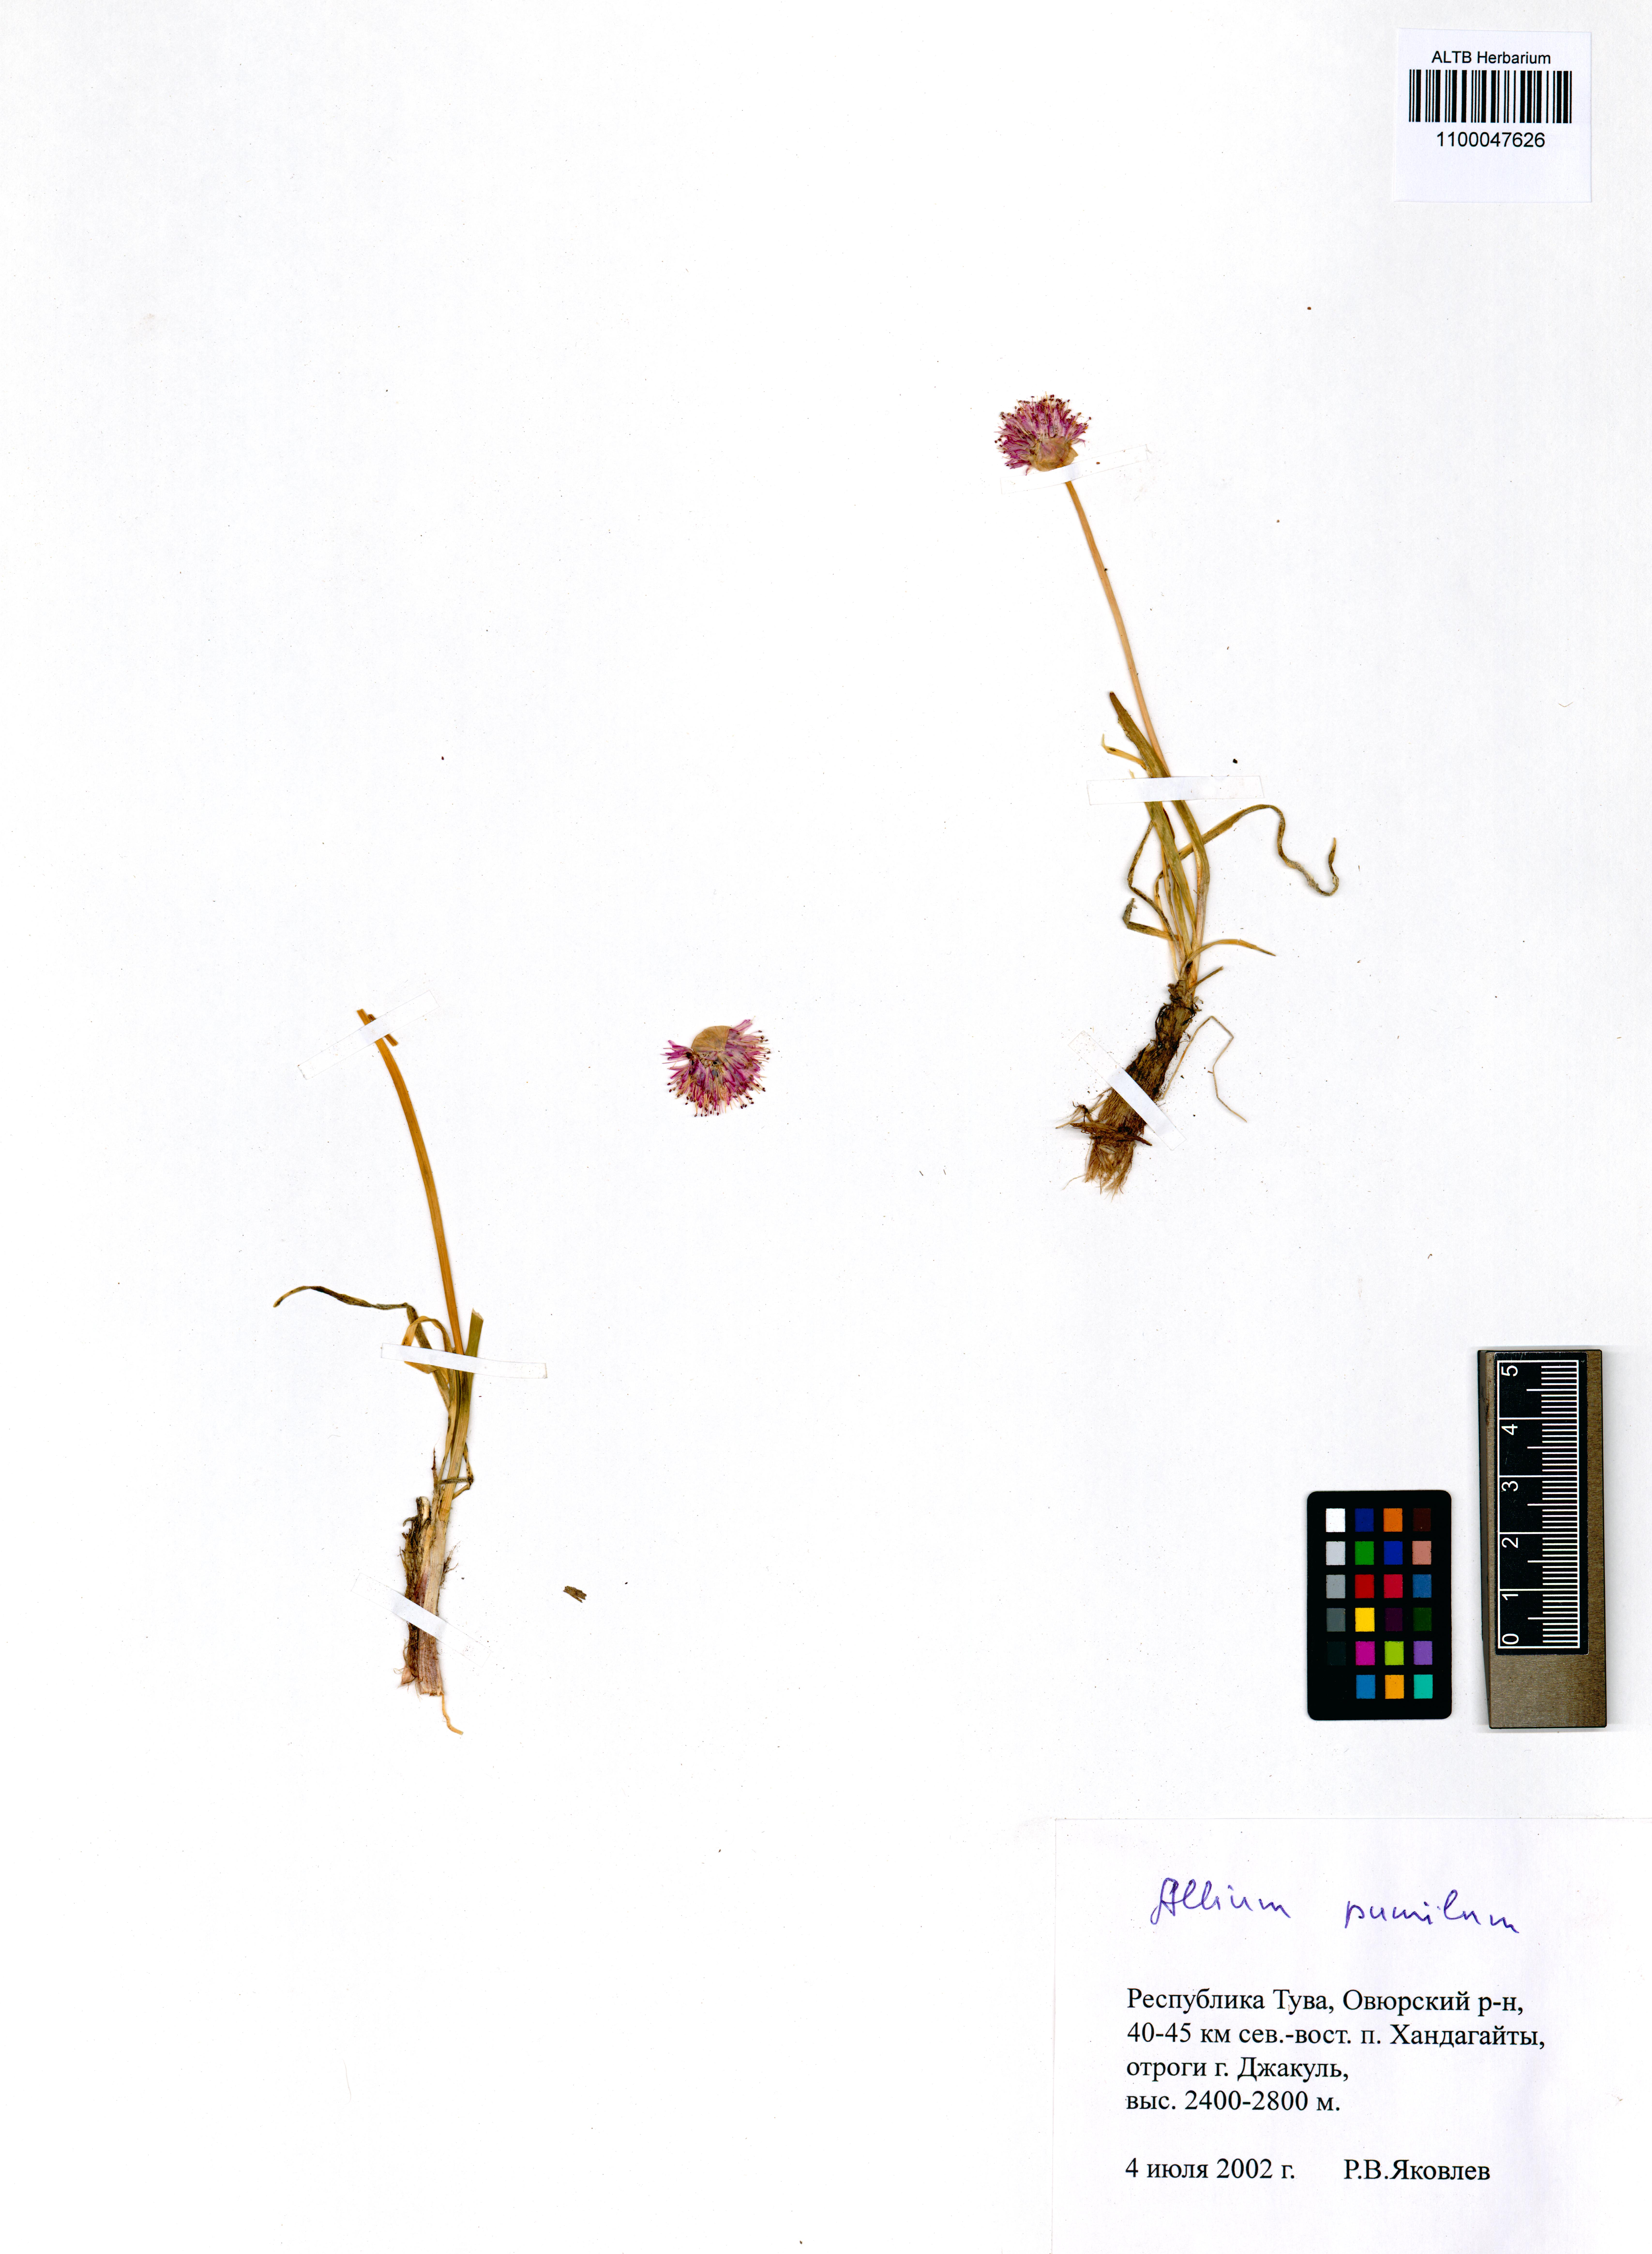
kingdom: Plantae
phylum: Tracheophyta
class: Liliopsida
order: Asparagales
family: Amaryllidaceae
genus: Allium
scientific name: Allium pumilum
